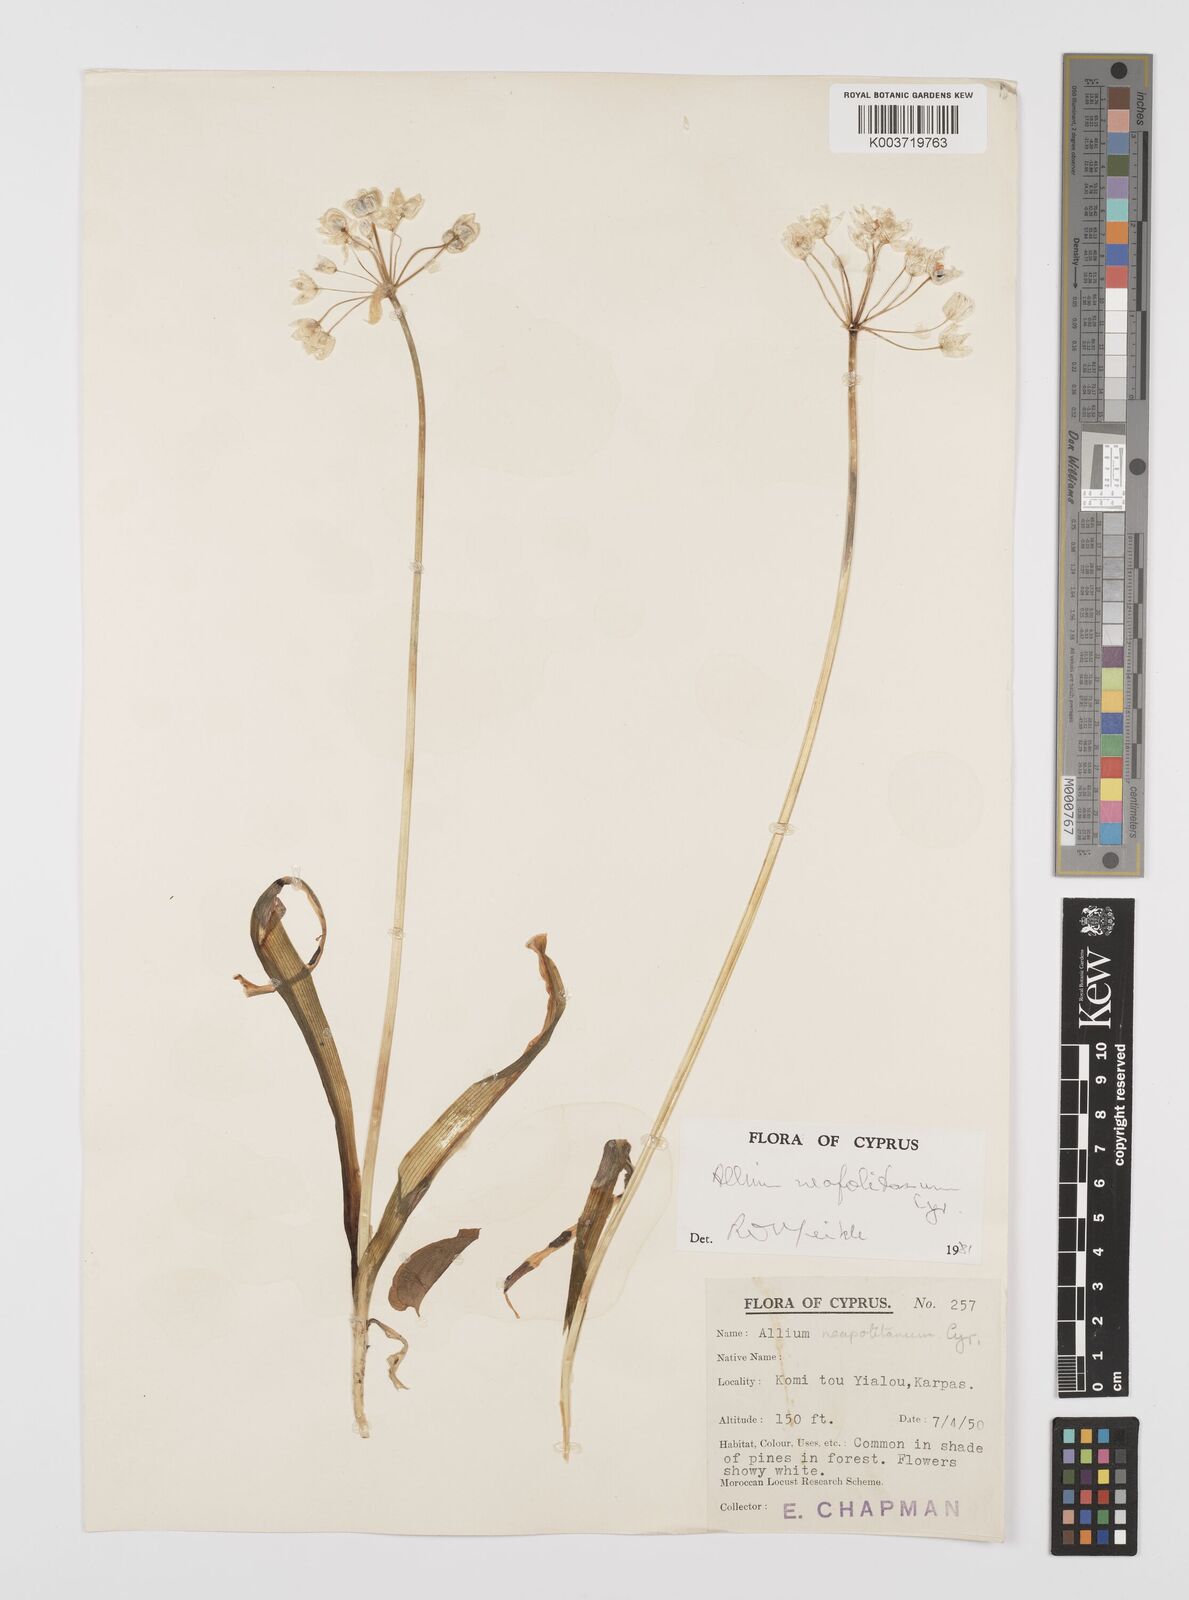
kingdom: Plantae
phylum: Tracheophyta
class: Liliopsida
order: Asparagales
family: Amaryllidaceae
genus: Allium
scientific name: Allium neapolitanum
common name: Neapolitan garlic
